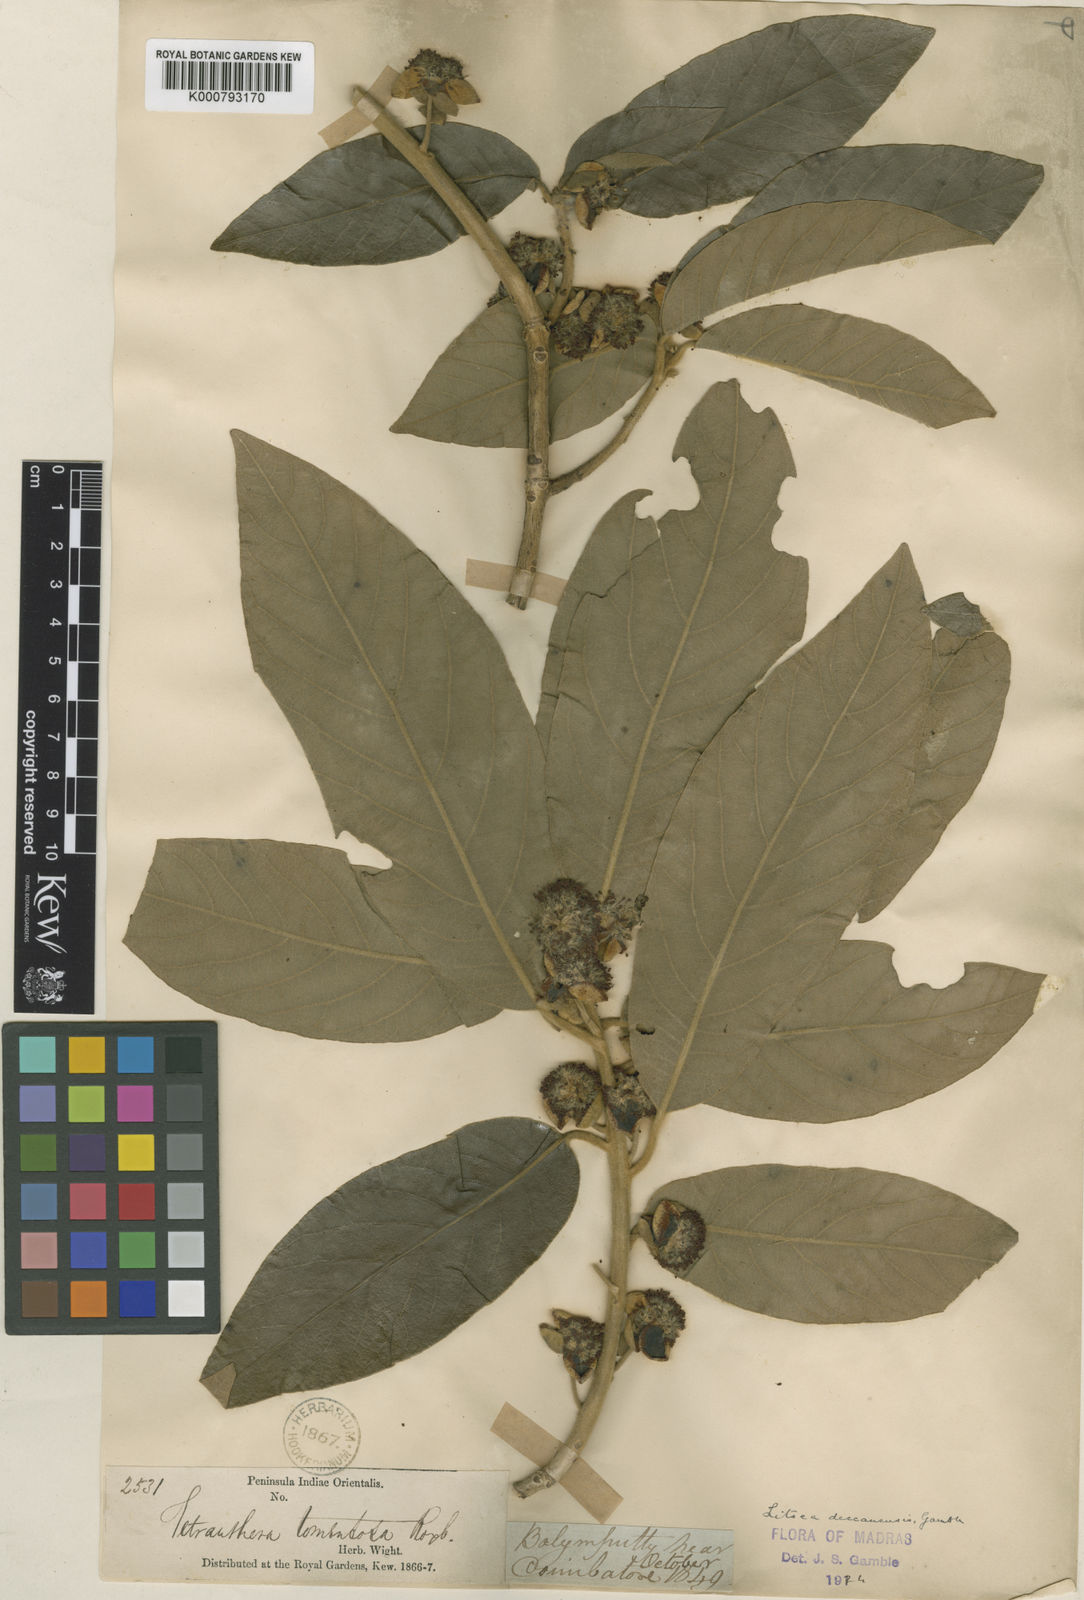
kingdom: Plantae
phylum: Tracheophyta
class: Magnoliopsida
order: Laurales
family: Lauraceae
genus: Litsea
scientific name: Litsea ligustrina
